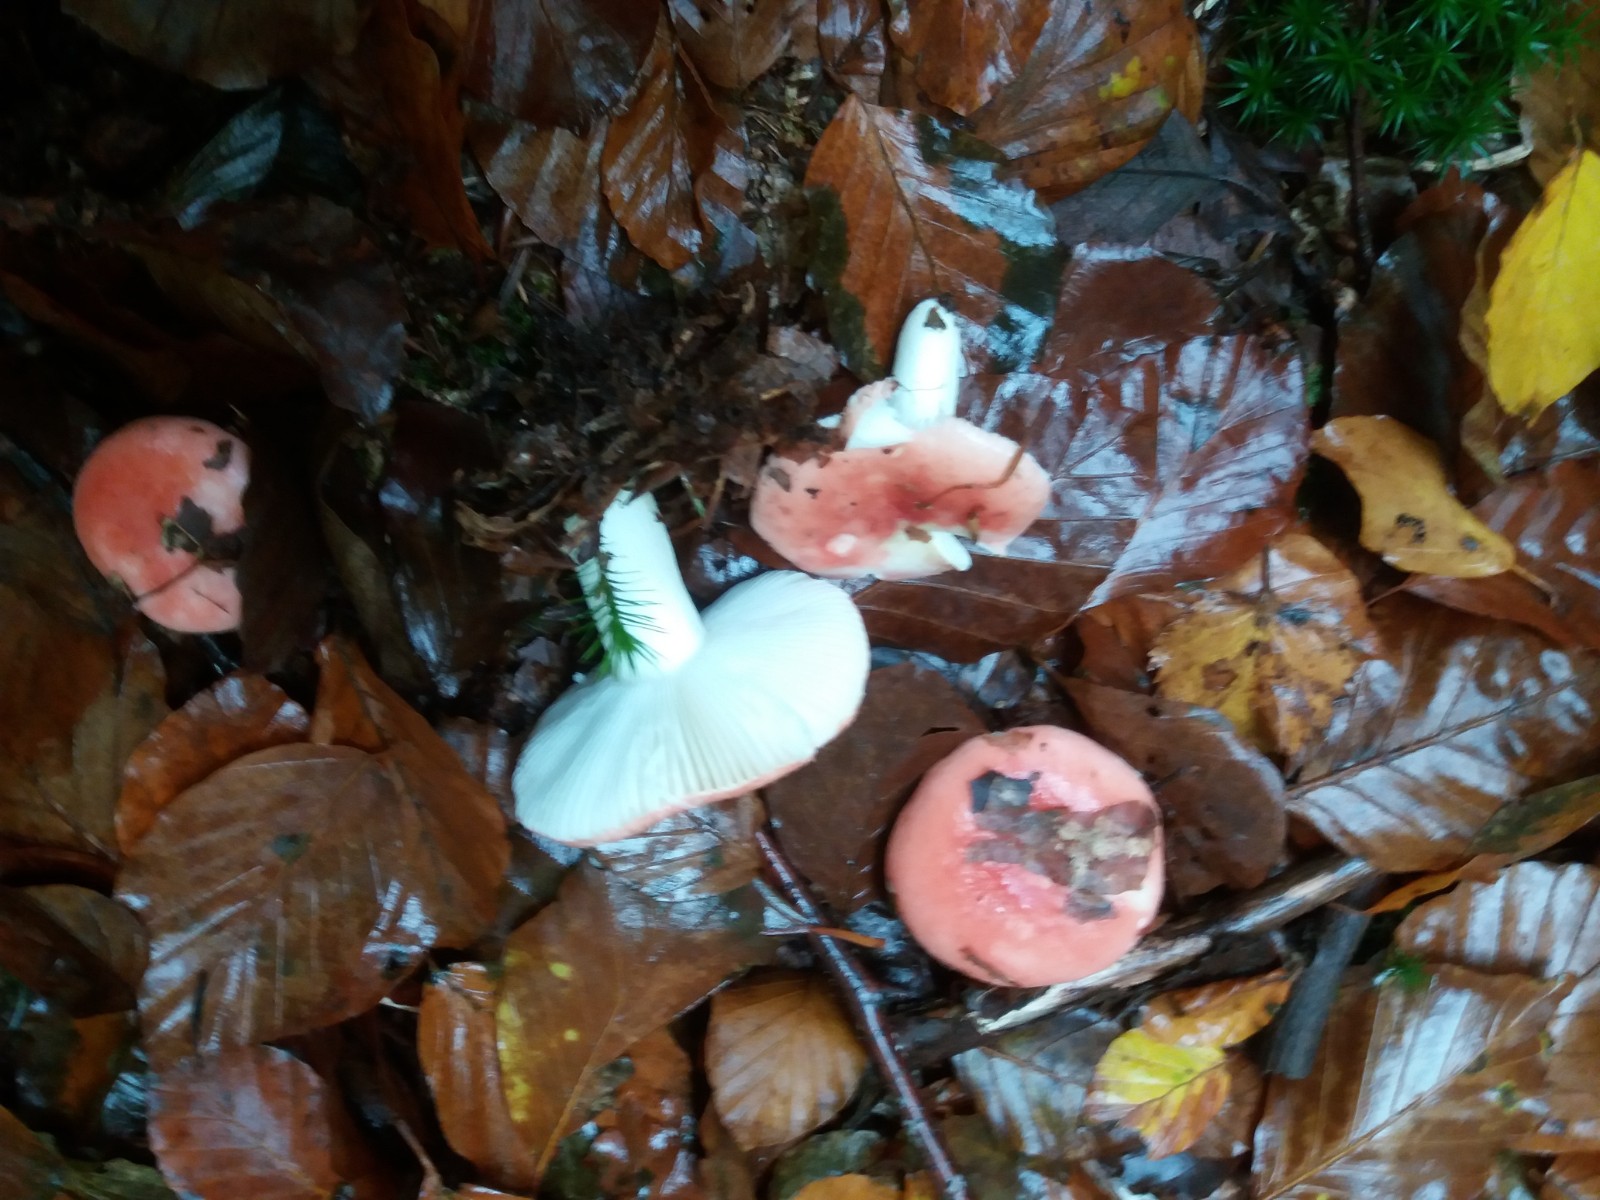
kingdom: Fungi
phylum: Basidiomycota
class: Agaricomycetes
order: Russulales
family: Russulaceae
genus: Russula
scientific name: Russula silvestris
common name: mellemstor gift-skørhat
